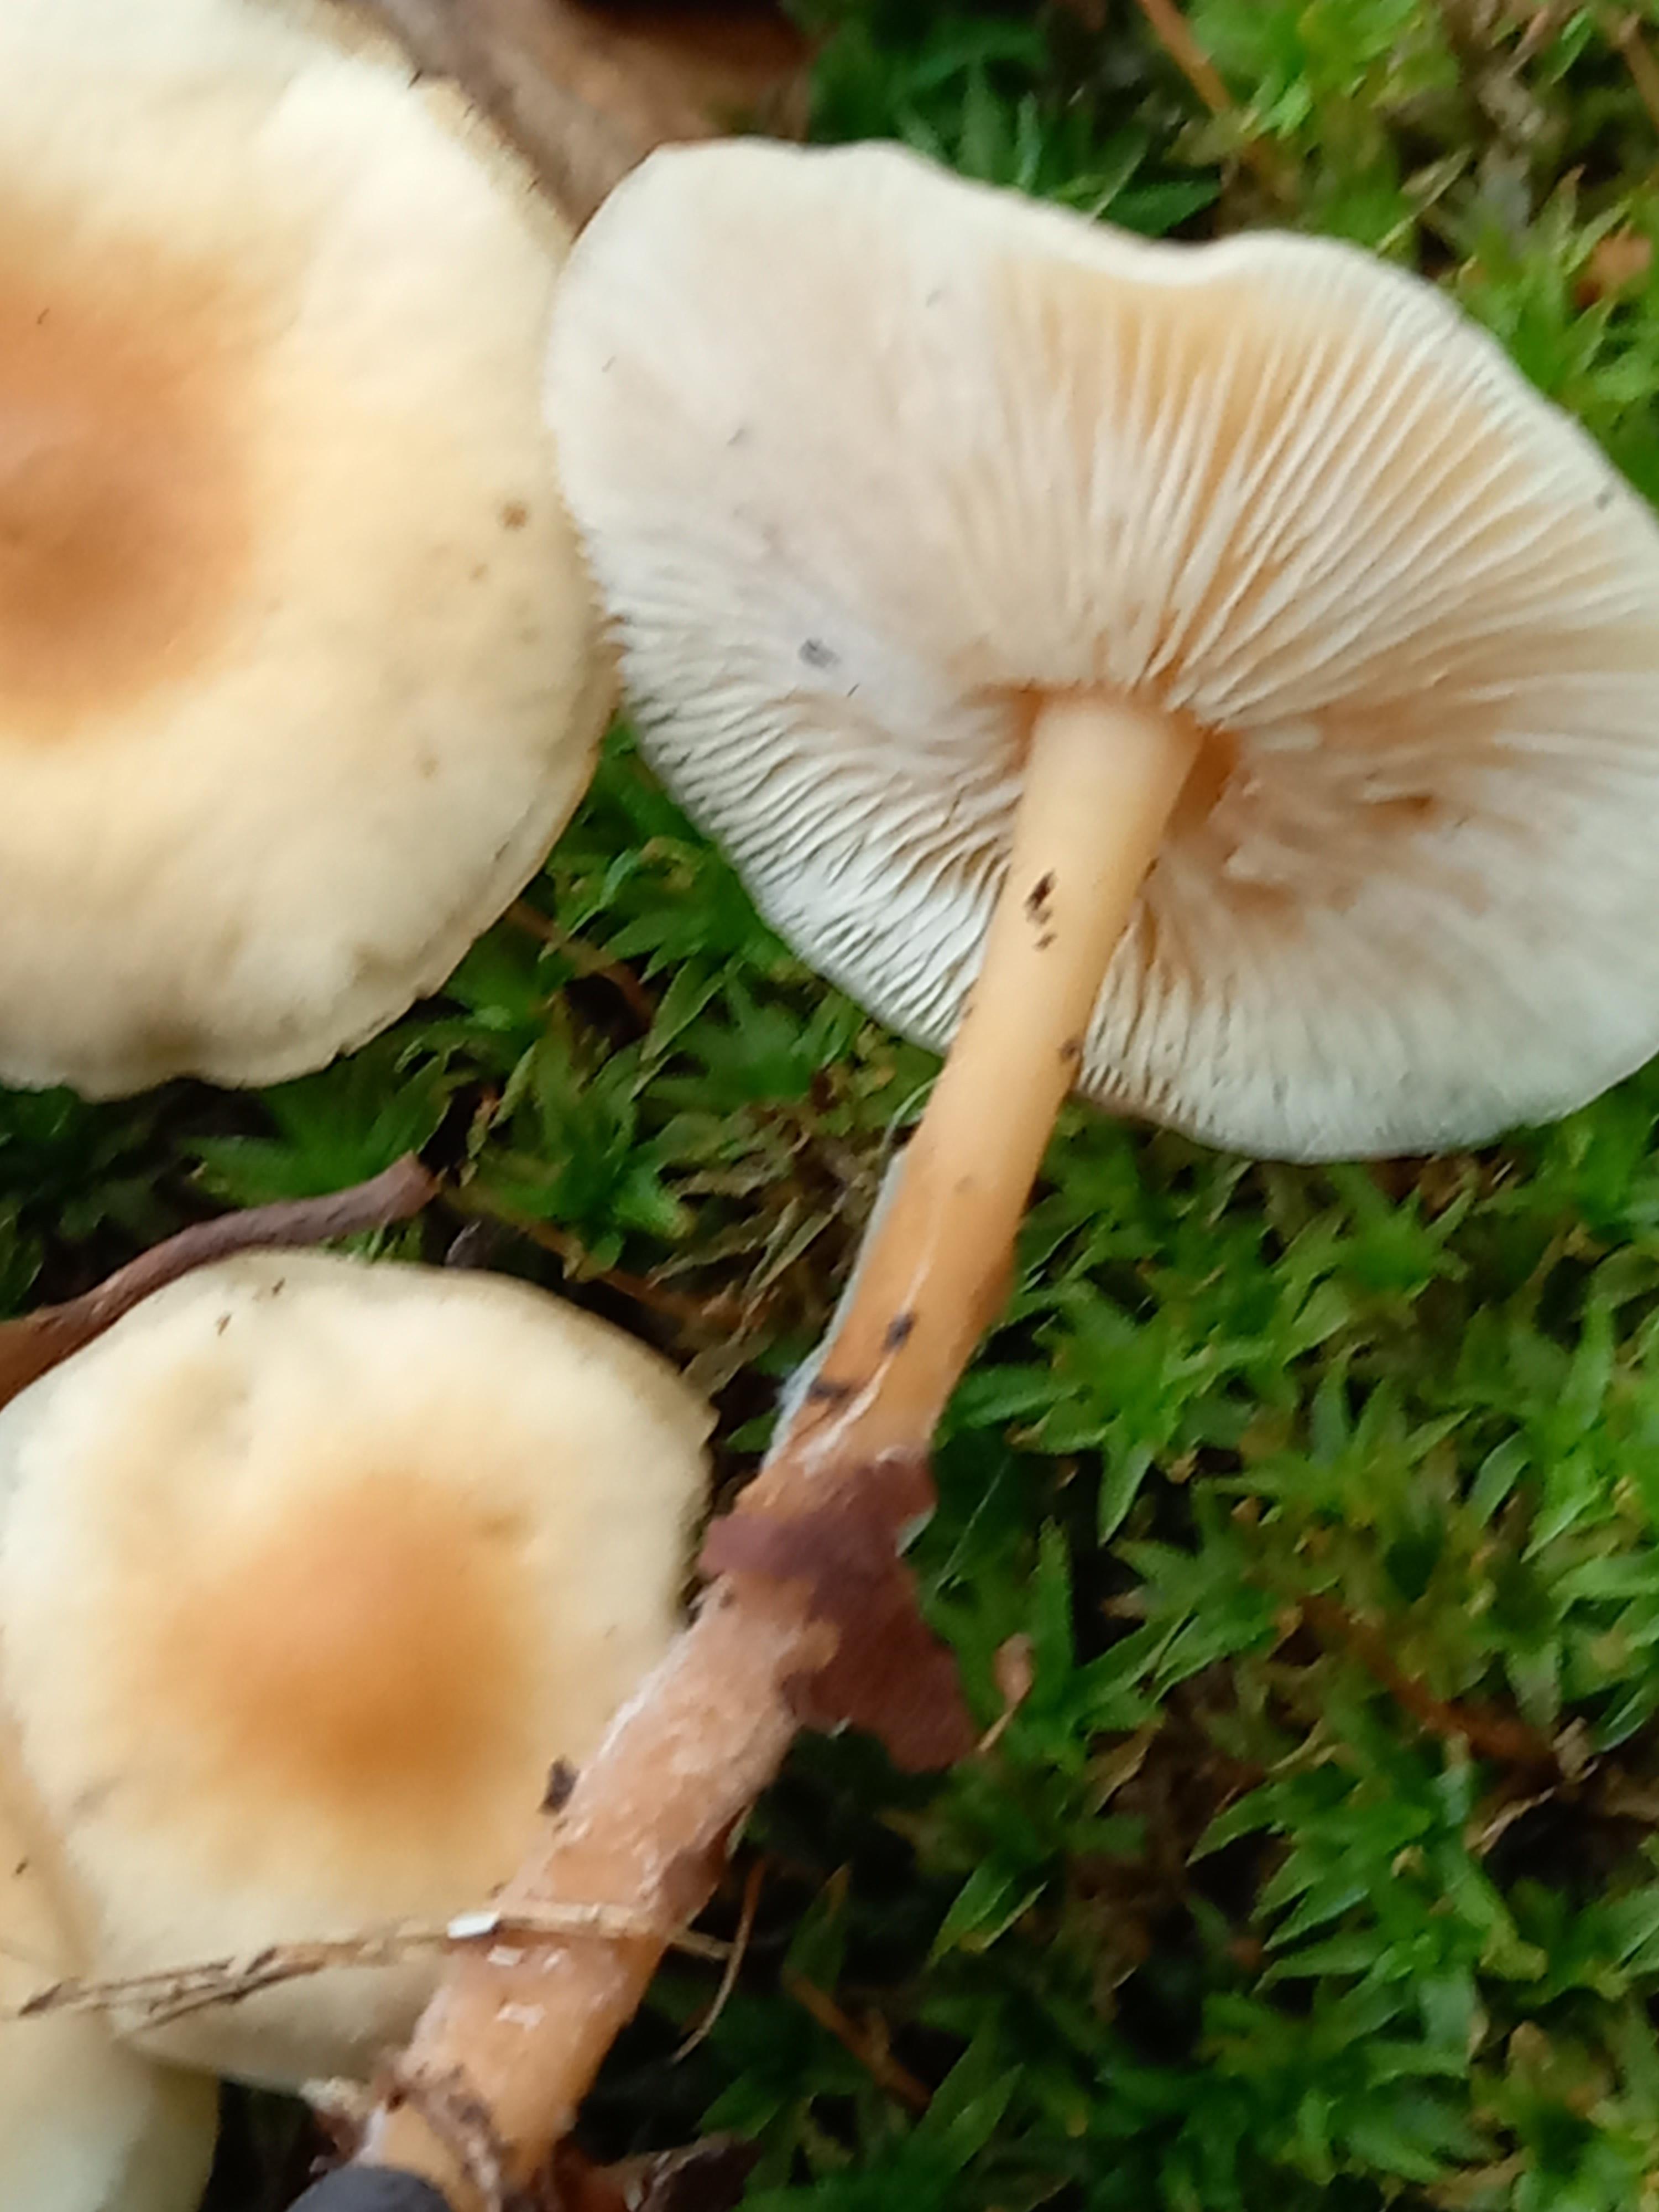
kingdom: Fungi
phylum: Basidiomycota
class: Agaricomycetes
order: Agaricales
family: Omphalotaceae
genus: Gymnopus
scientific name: Gymnopus dryophilus
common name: løv-fladhat
